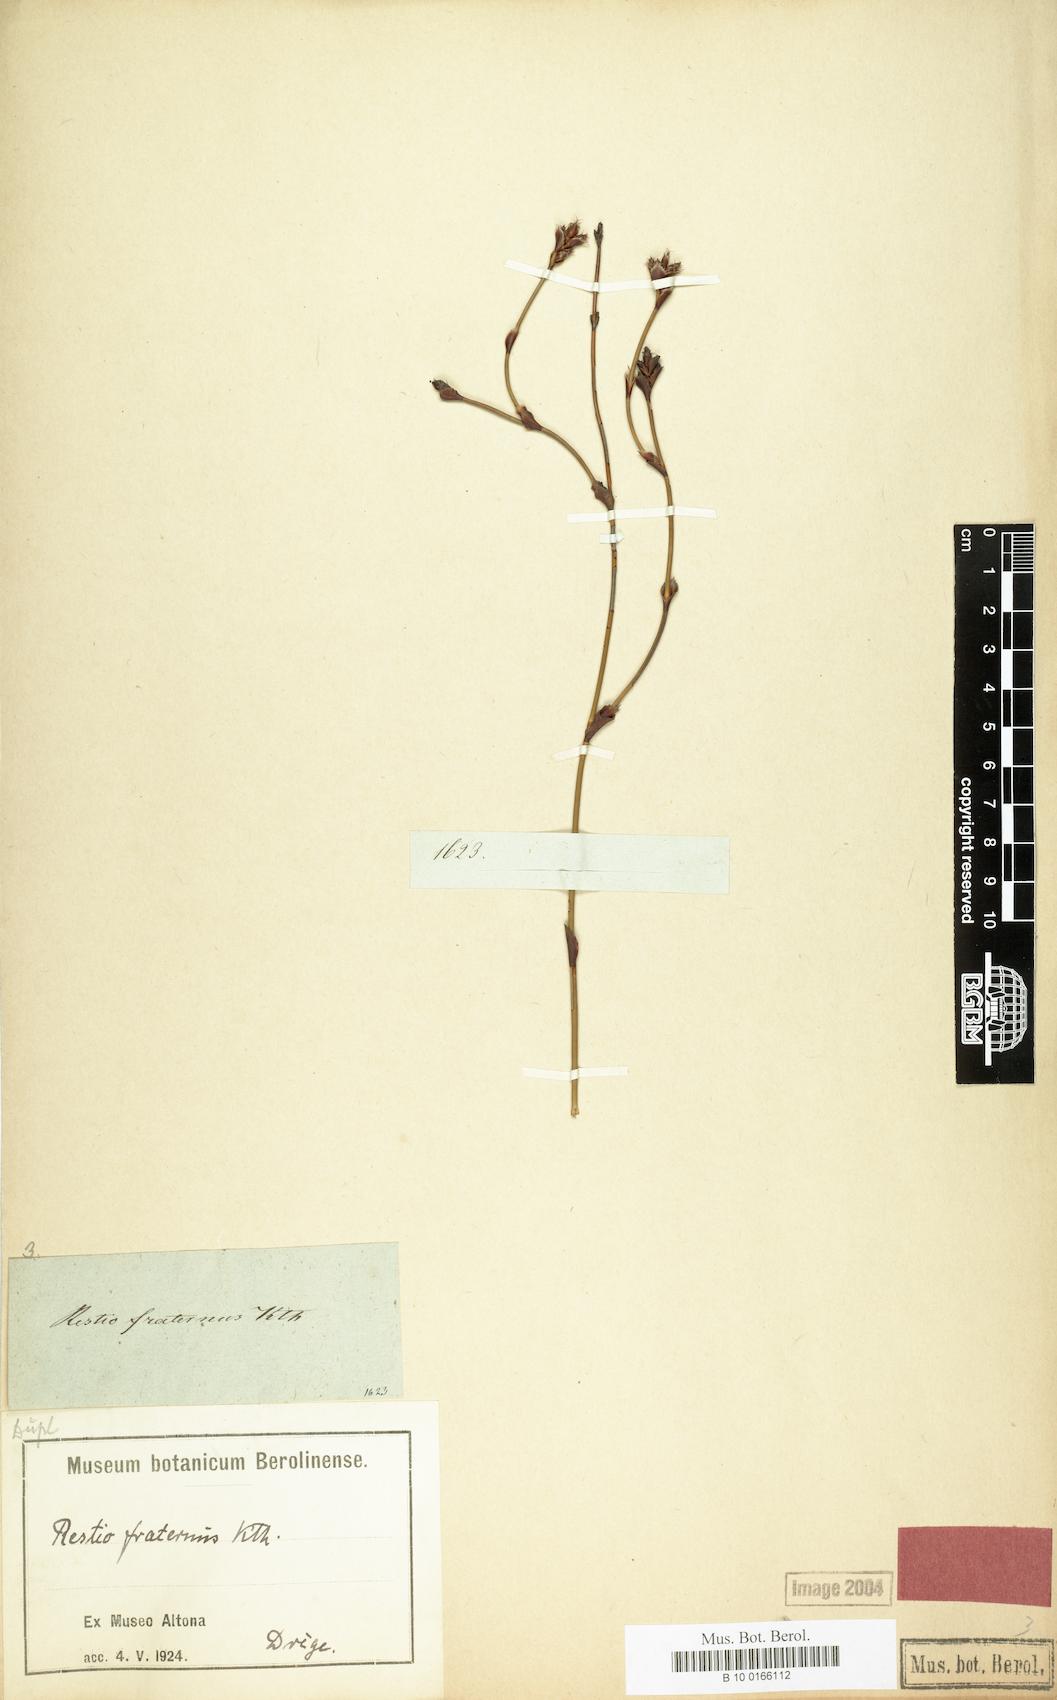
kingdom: Plantae
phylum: Tracheophyta
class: Liliopsida
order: Poales
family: Restionaceae
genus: Restio
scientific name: Restio fraternus
